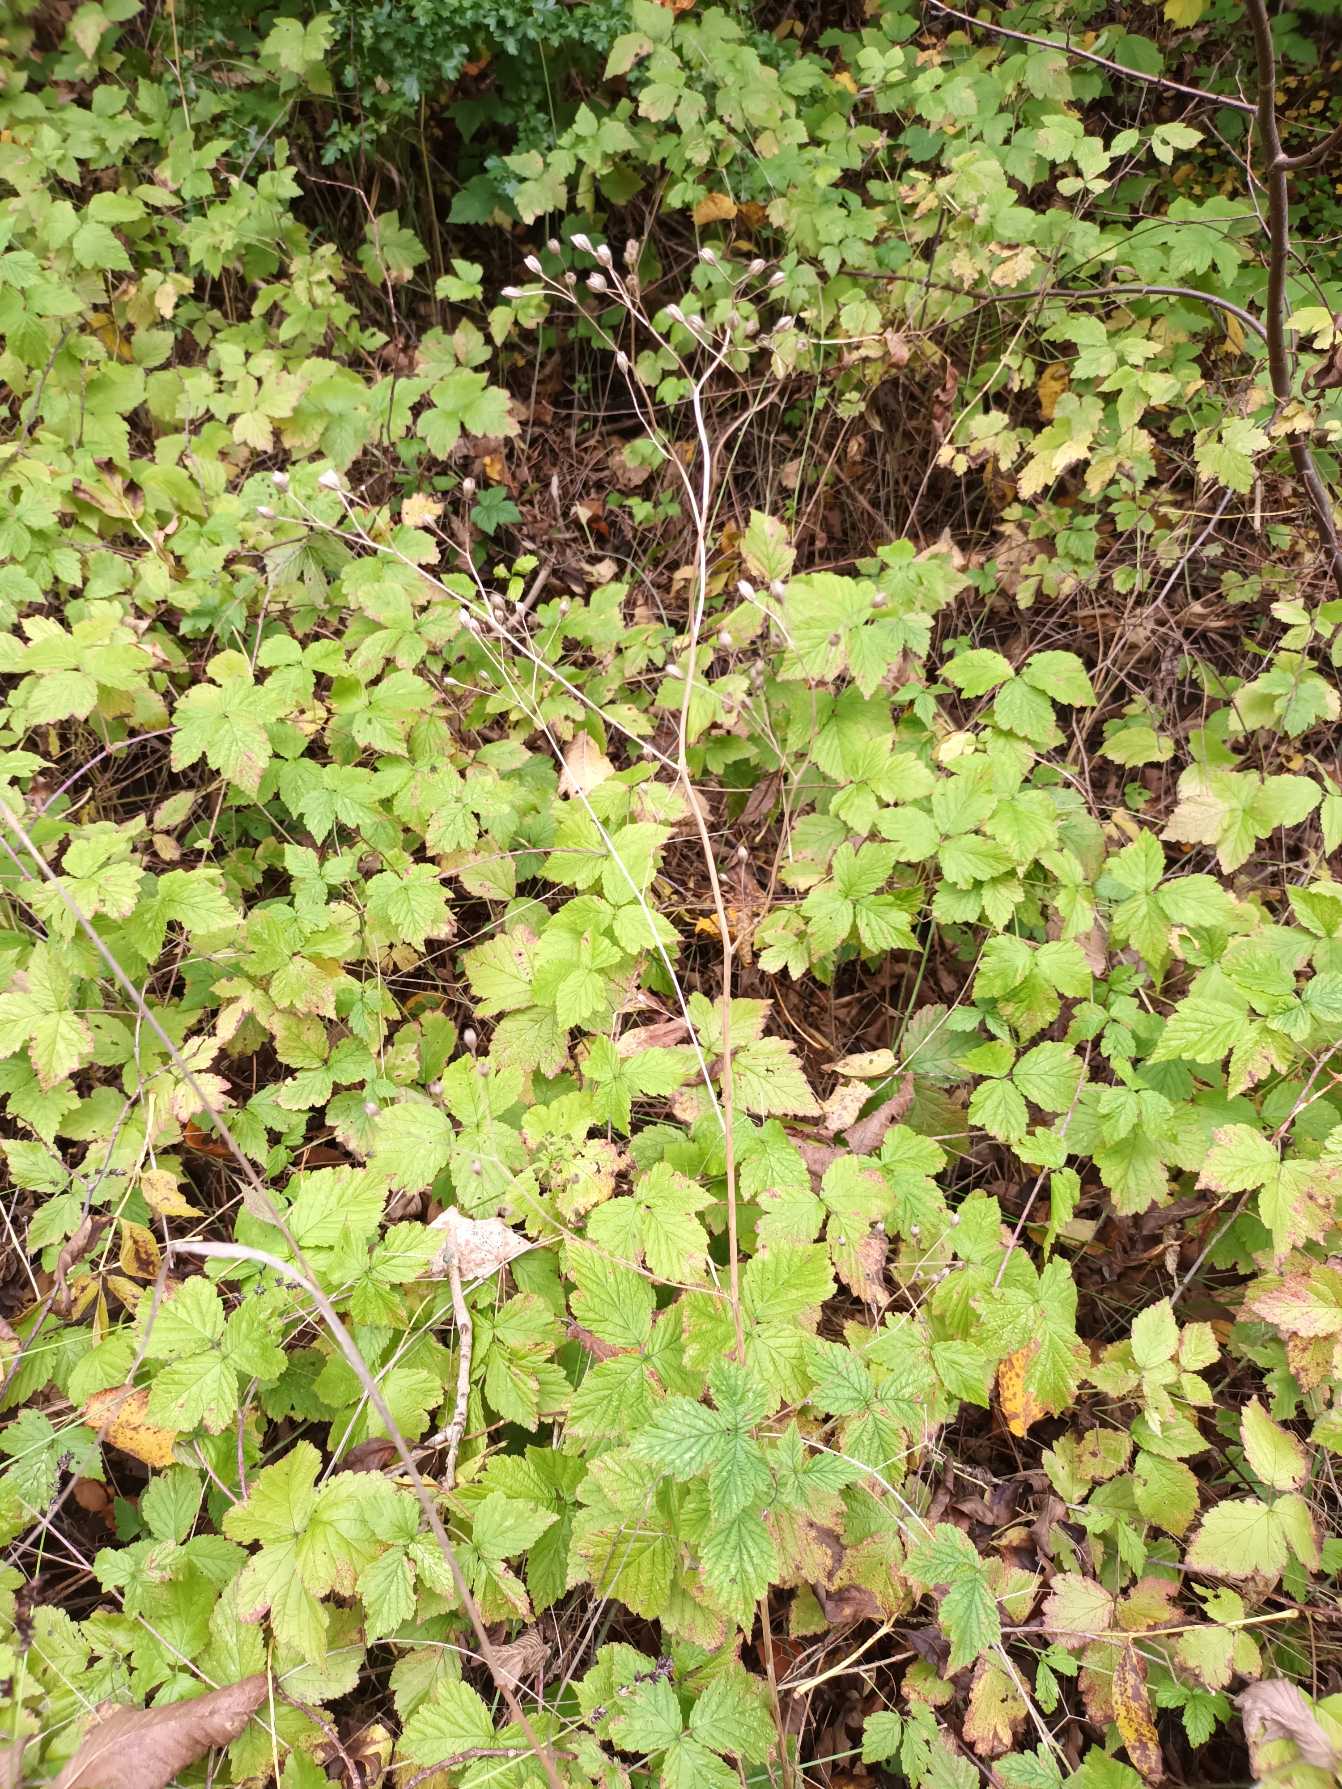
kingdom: Plantae
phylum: Tracheophyta
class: Magnoliopsida
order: Asterales
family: Asteraceae
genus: Lapsana
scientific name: Lapsana communis
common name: Haremad
